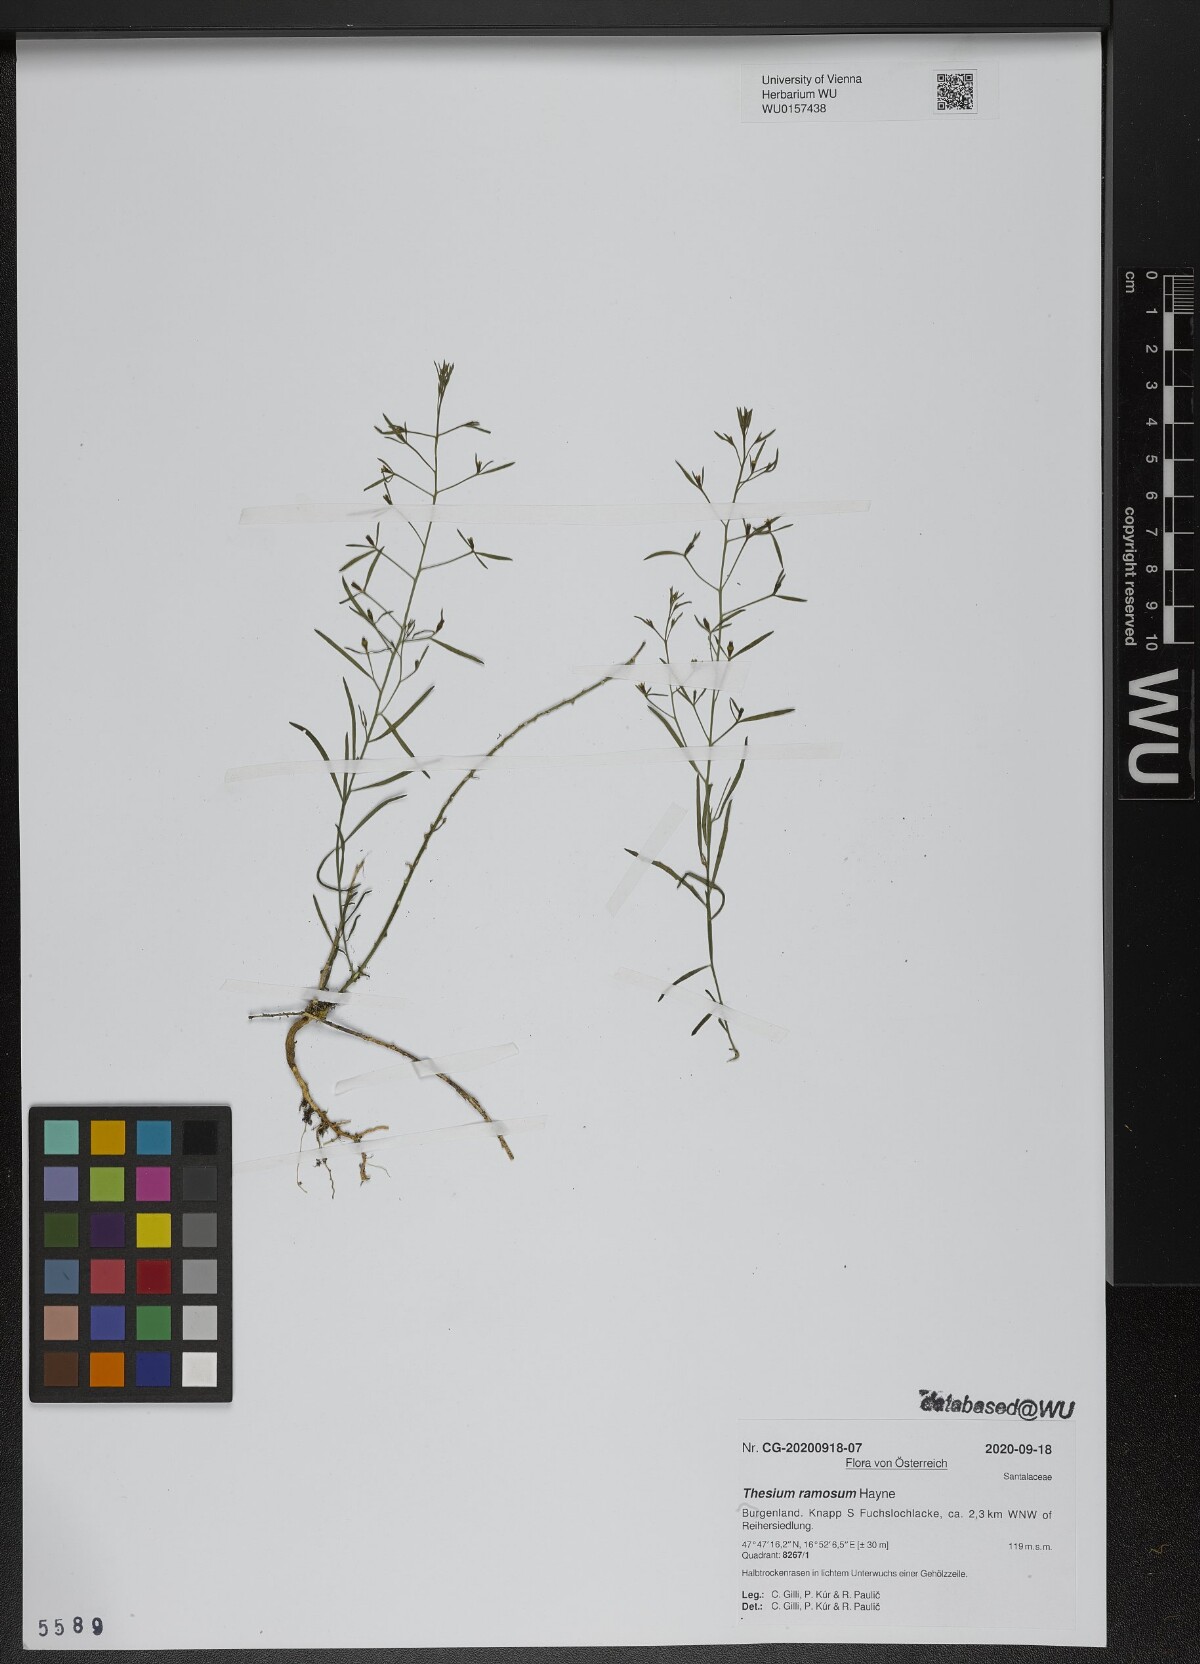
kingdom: Plantae
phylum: Tracheophyta
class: Magnoliopsida
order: Santalales
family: Thesiaceae
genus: Thesium
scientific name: Thesium ramosum
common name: Field thesium
